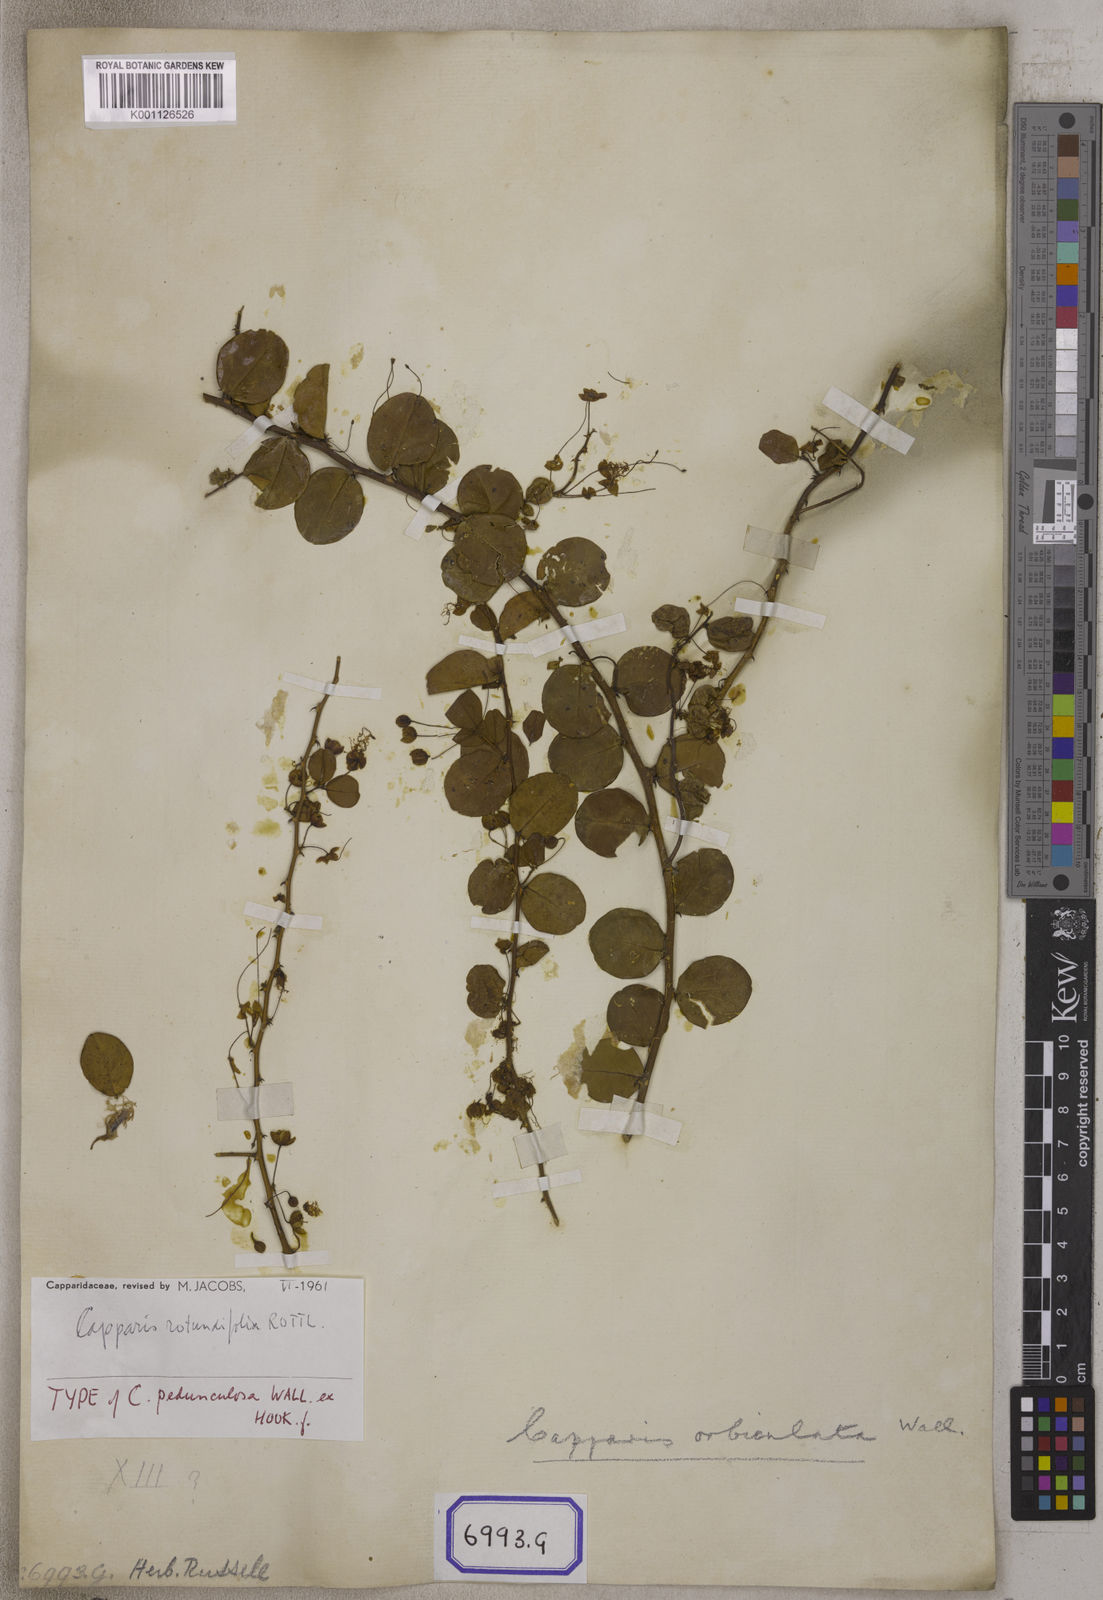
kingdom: Plantae
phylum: Tracheophyta
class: Magnoliopsida
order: Brassicales
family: Capparaceae
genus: Capparis
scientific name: Capparis
